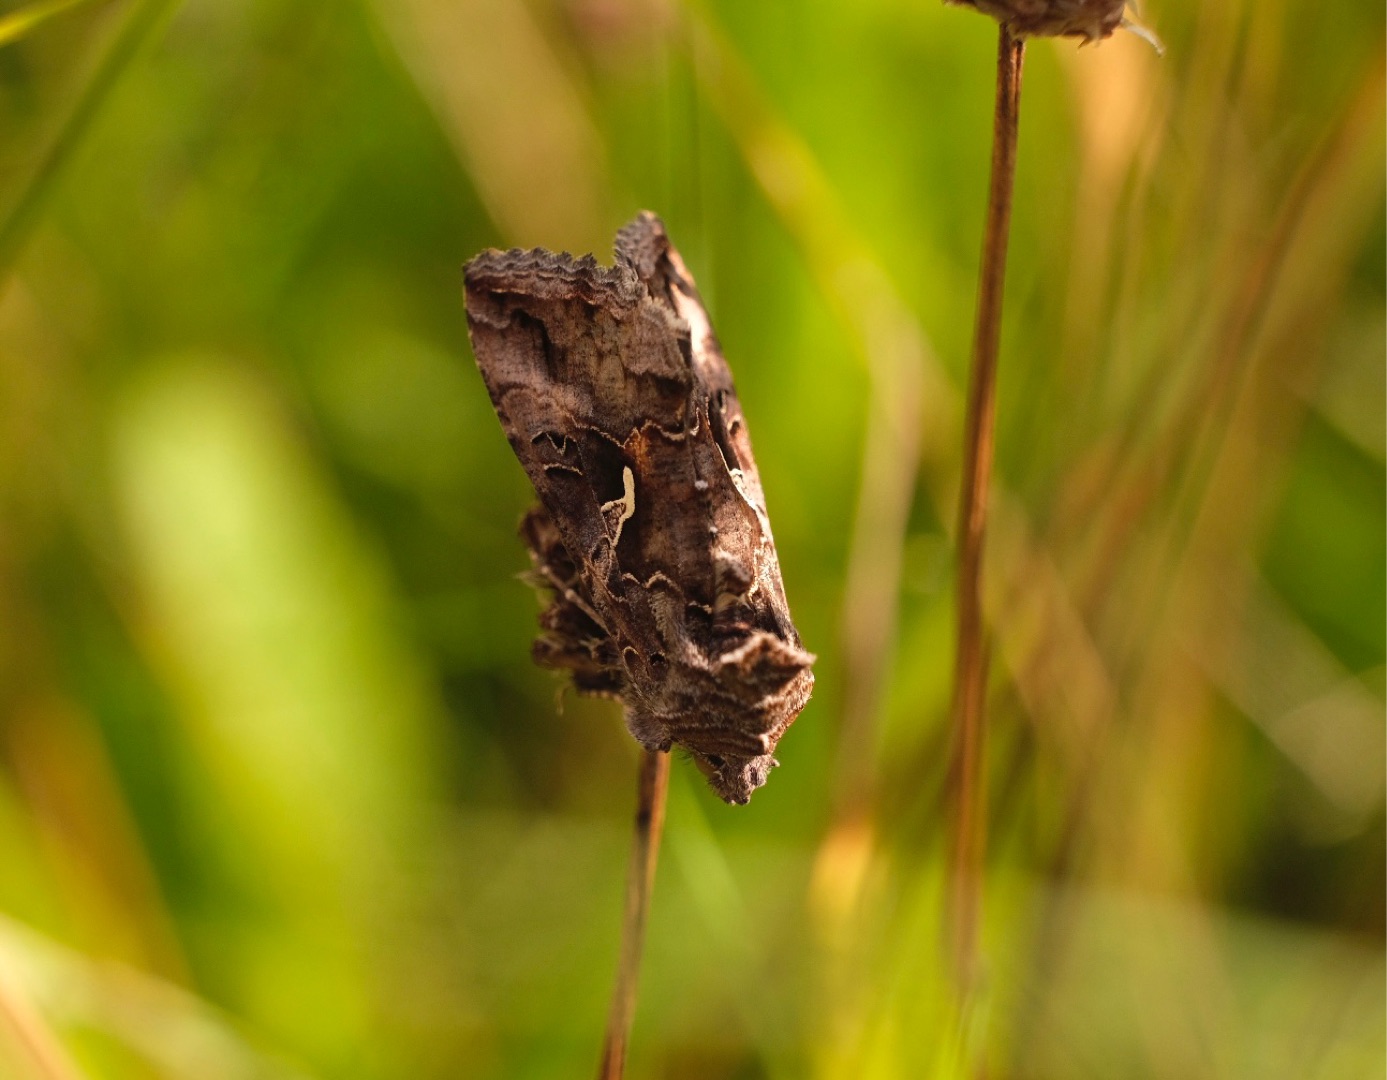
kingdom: Animalia
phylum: Arthropoda
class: Insecta
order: Lepidoptera
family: Noctuidae
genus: Autographa
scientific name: Autographa gamma
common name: Gammaugle
